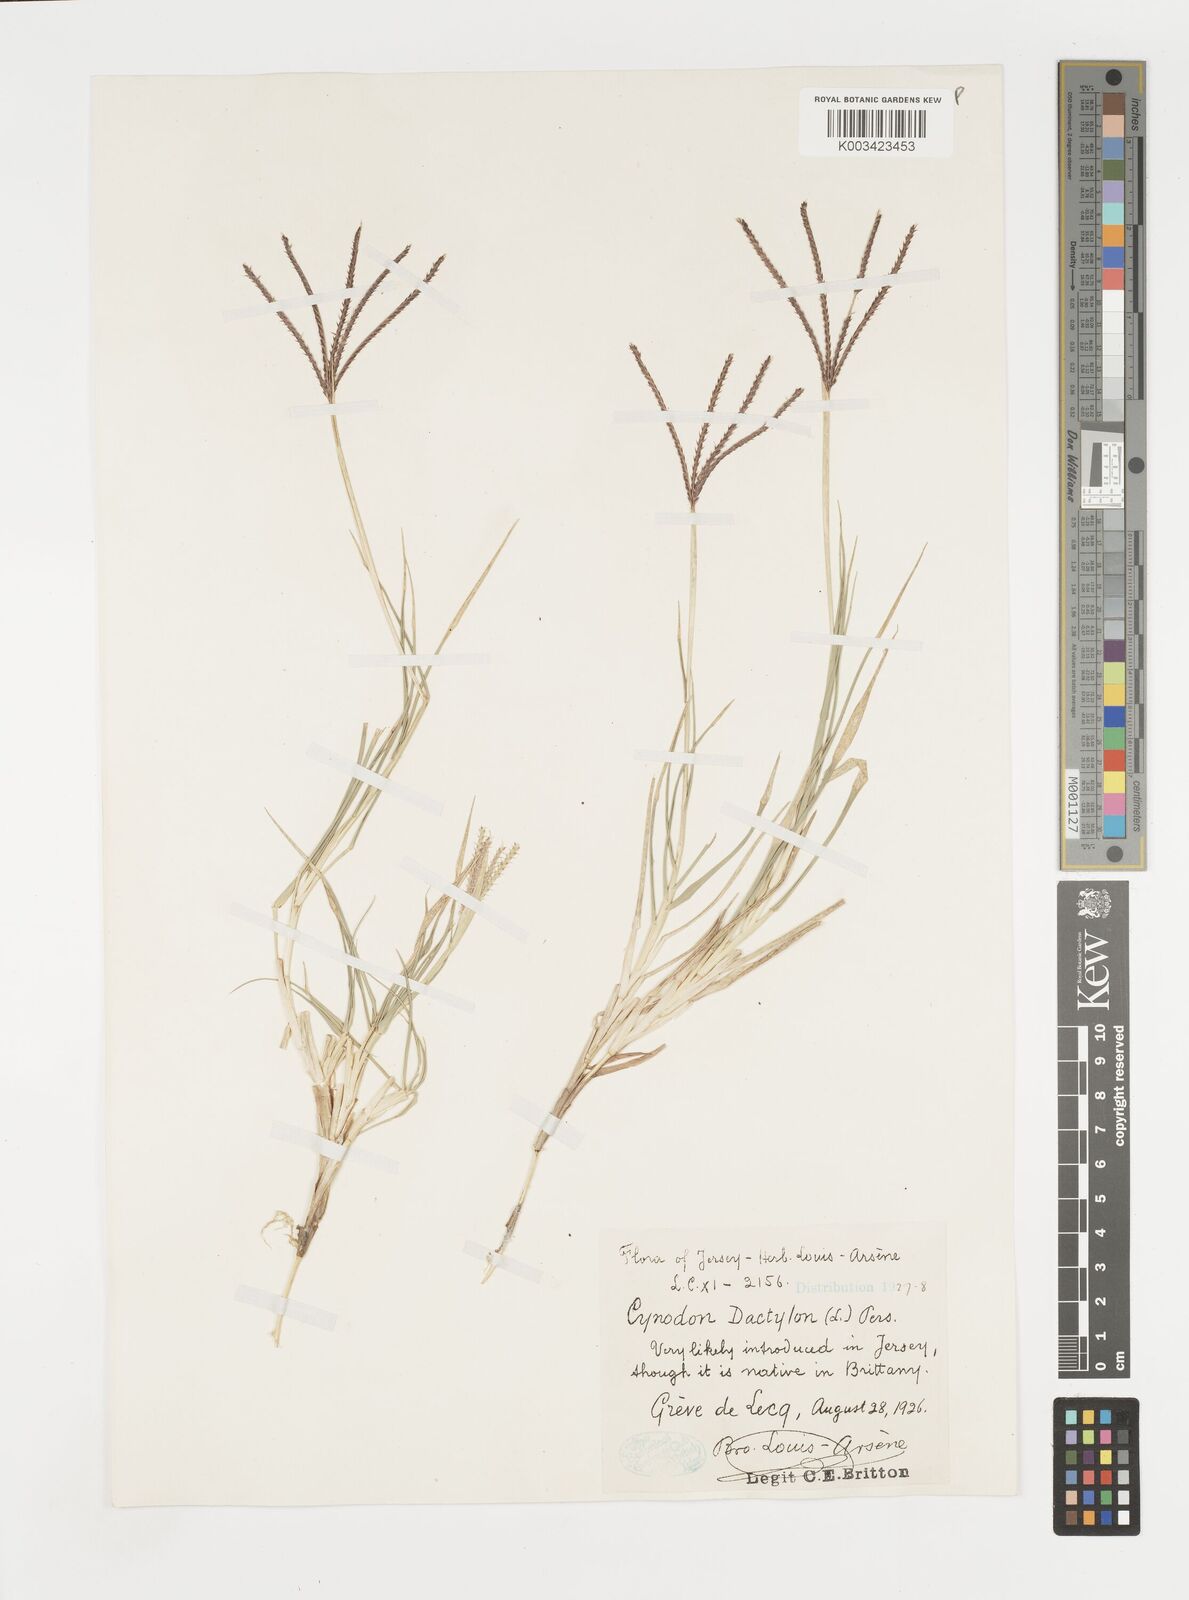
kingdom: Plantae
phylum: Tracheophyta
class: Liliopsida
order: Poales
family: Poaceae
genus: Cynodon
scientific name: Cynodon dactylon
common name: Bermuda grass
